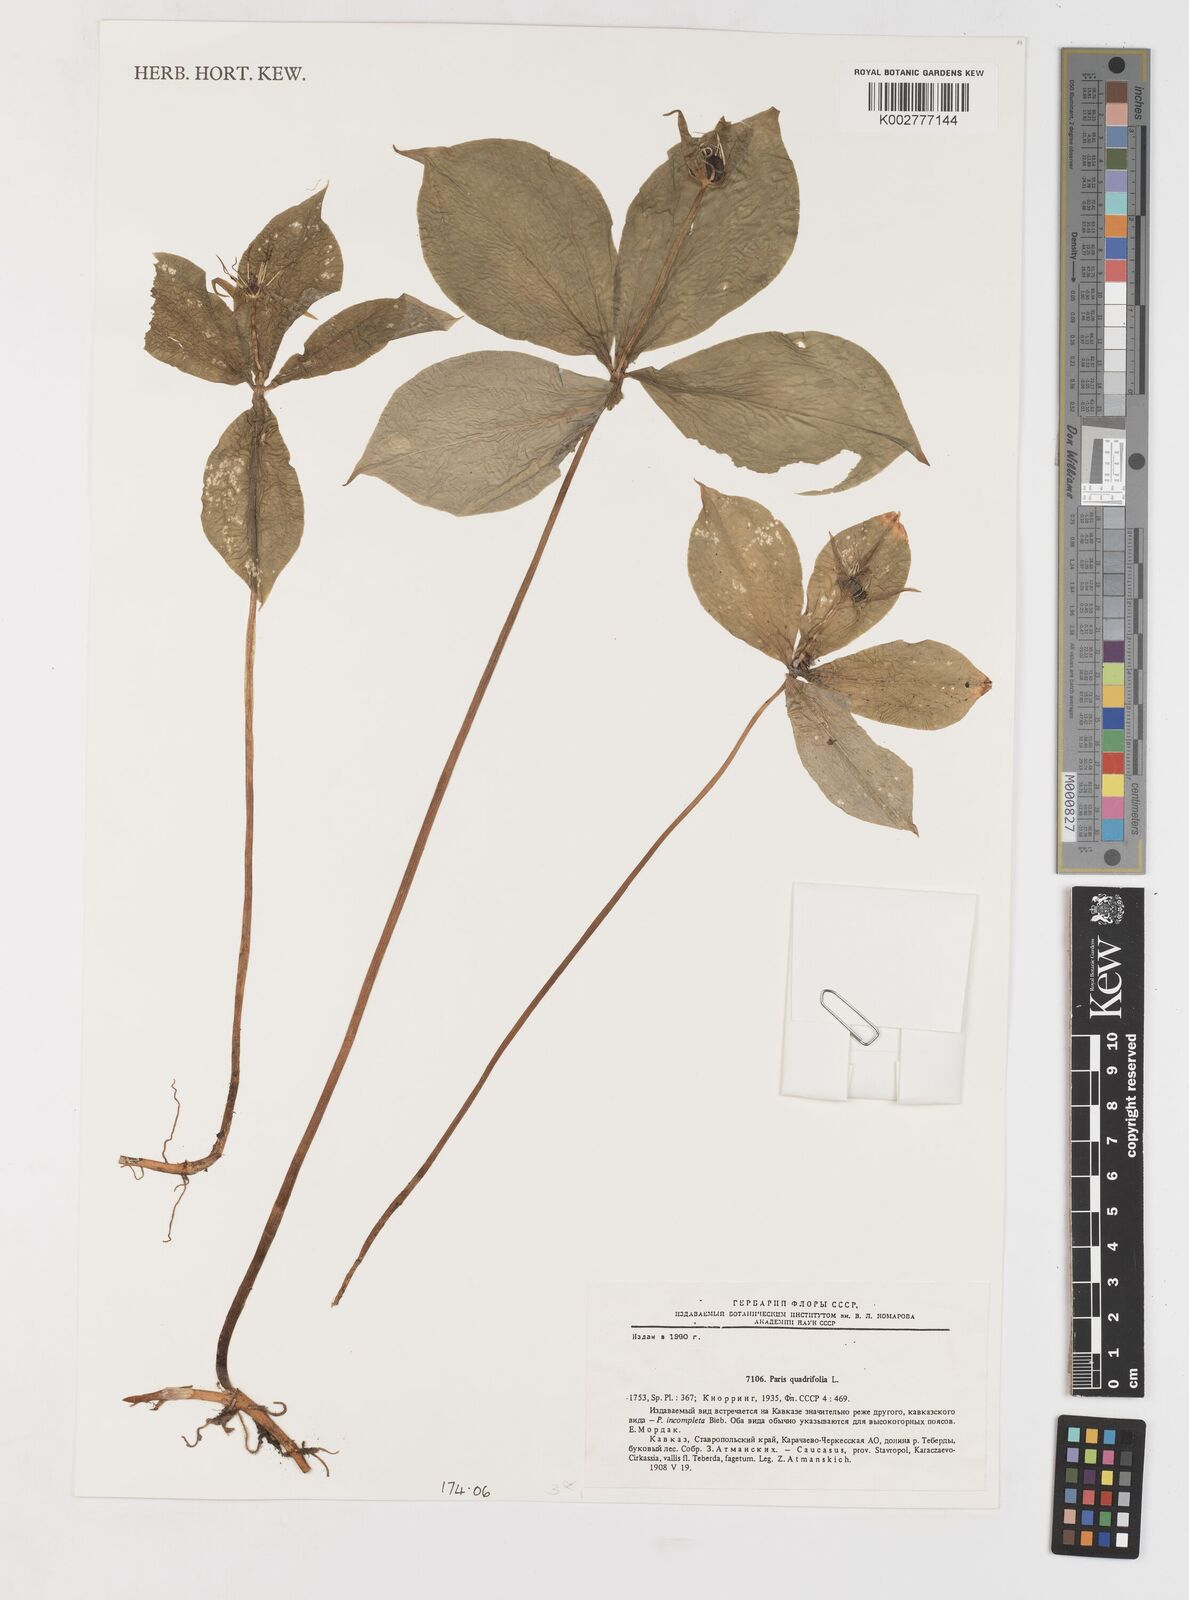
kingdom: Plantae
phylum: Tracheophyta
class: Liliopsida
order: Liliales
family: Melanthiaceae
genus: Paris
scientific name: Paris quadrifolia
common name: Herb-paris
